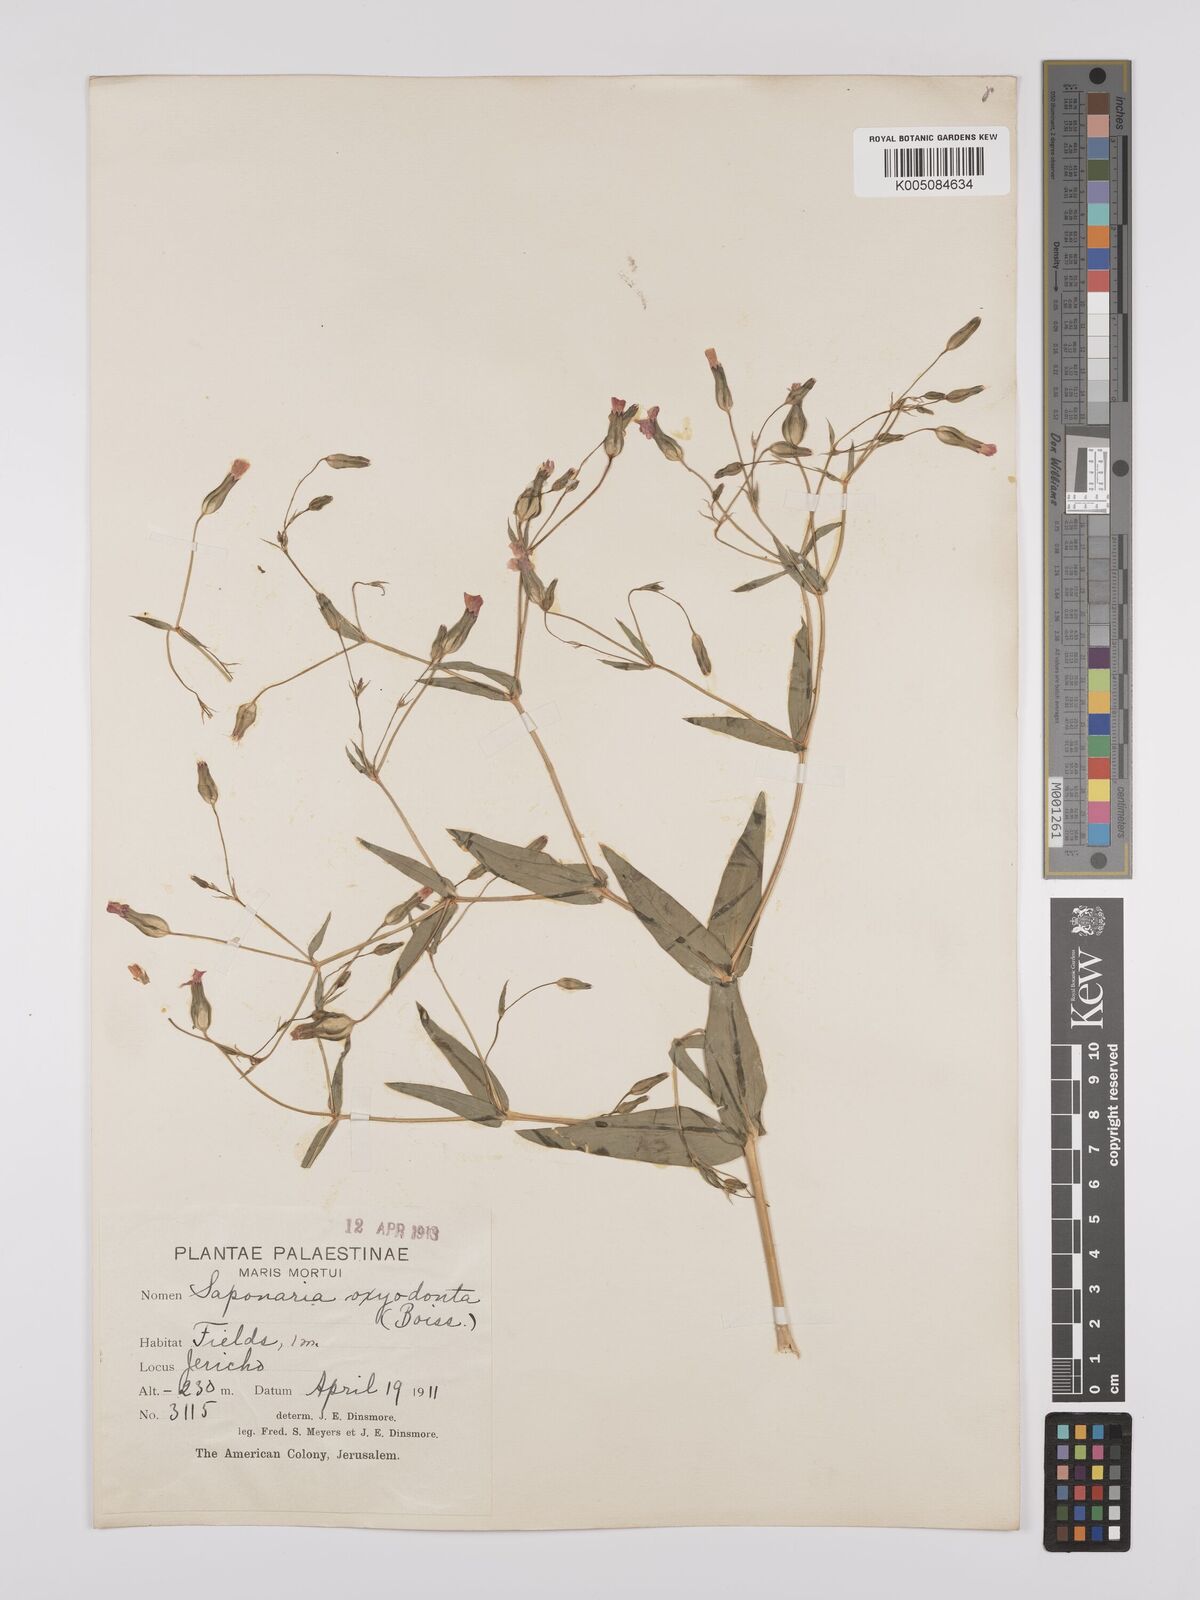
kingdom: Plantae
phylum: Tracheophyta
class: Magnoliopsida
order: Caryophyllales
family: Caryophyllaceae
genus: Gypsophila
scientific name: Gypsophila vaccaria
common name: Cow soapwort
